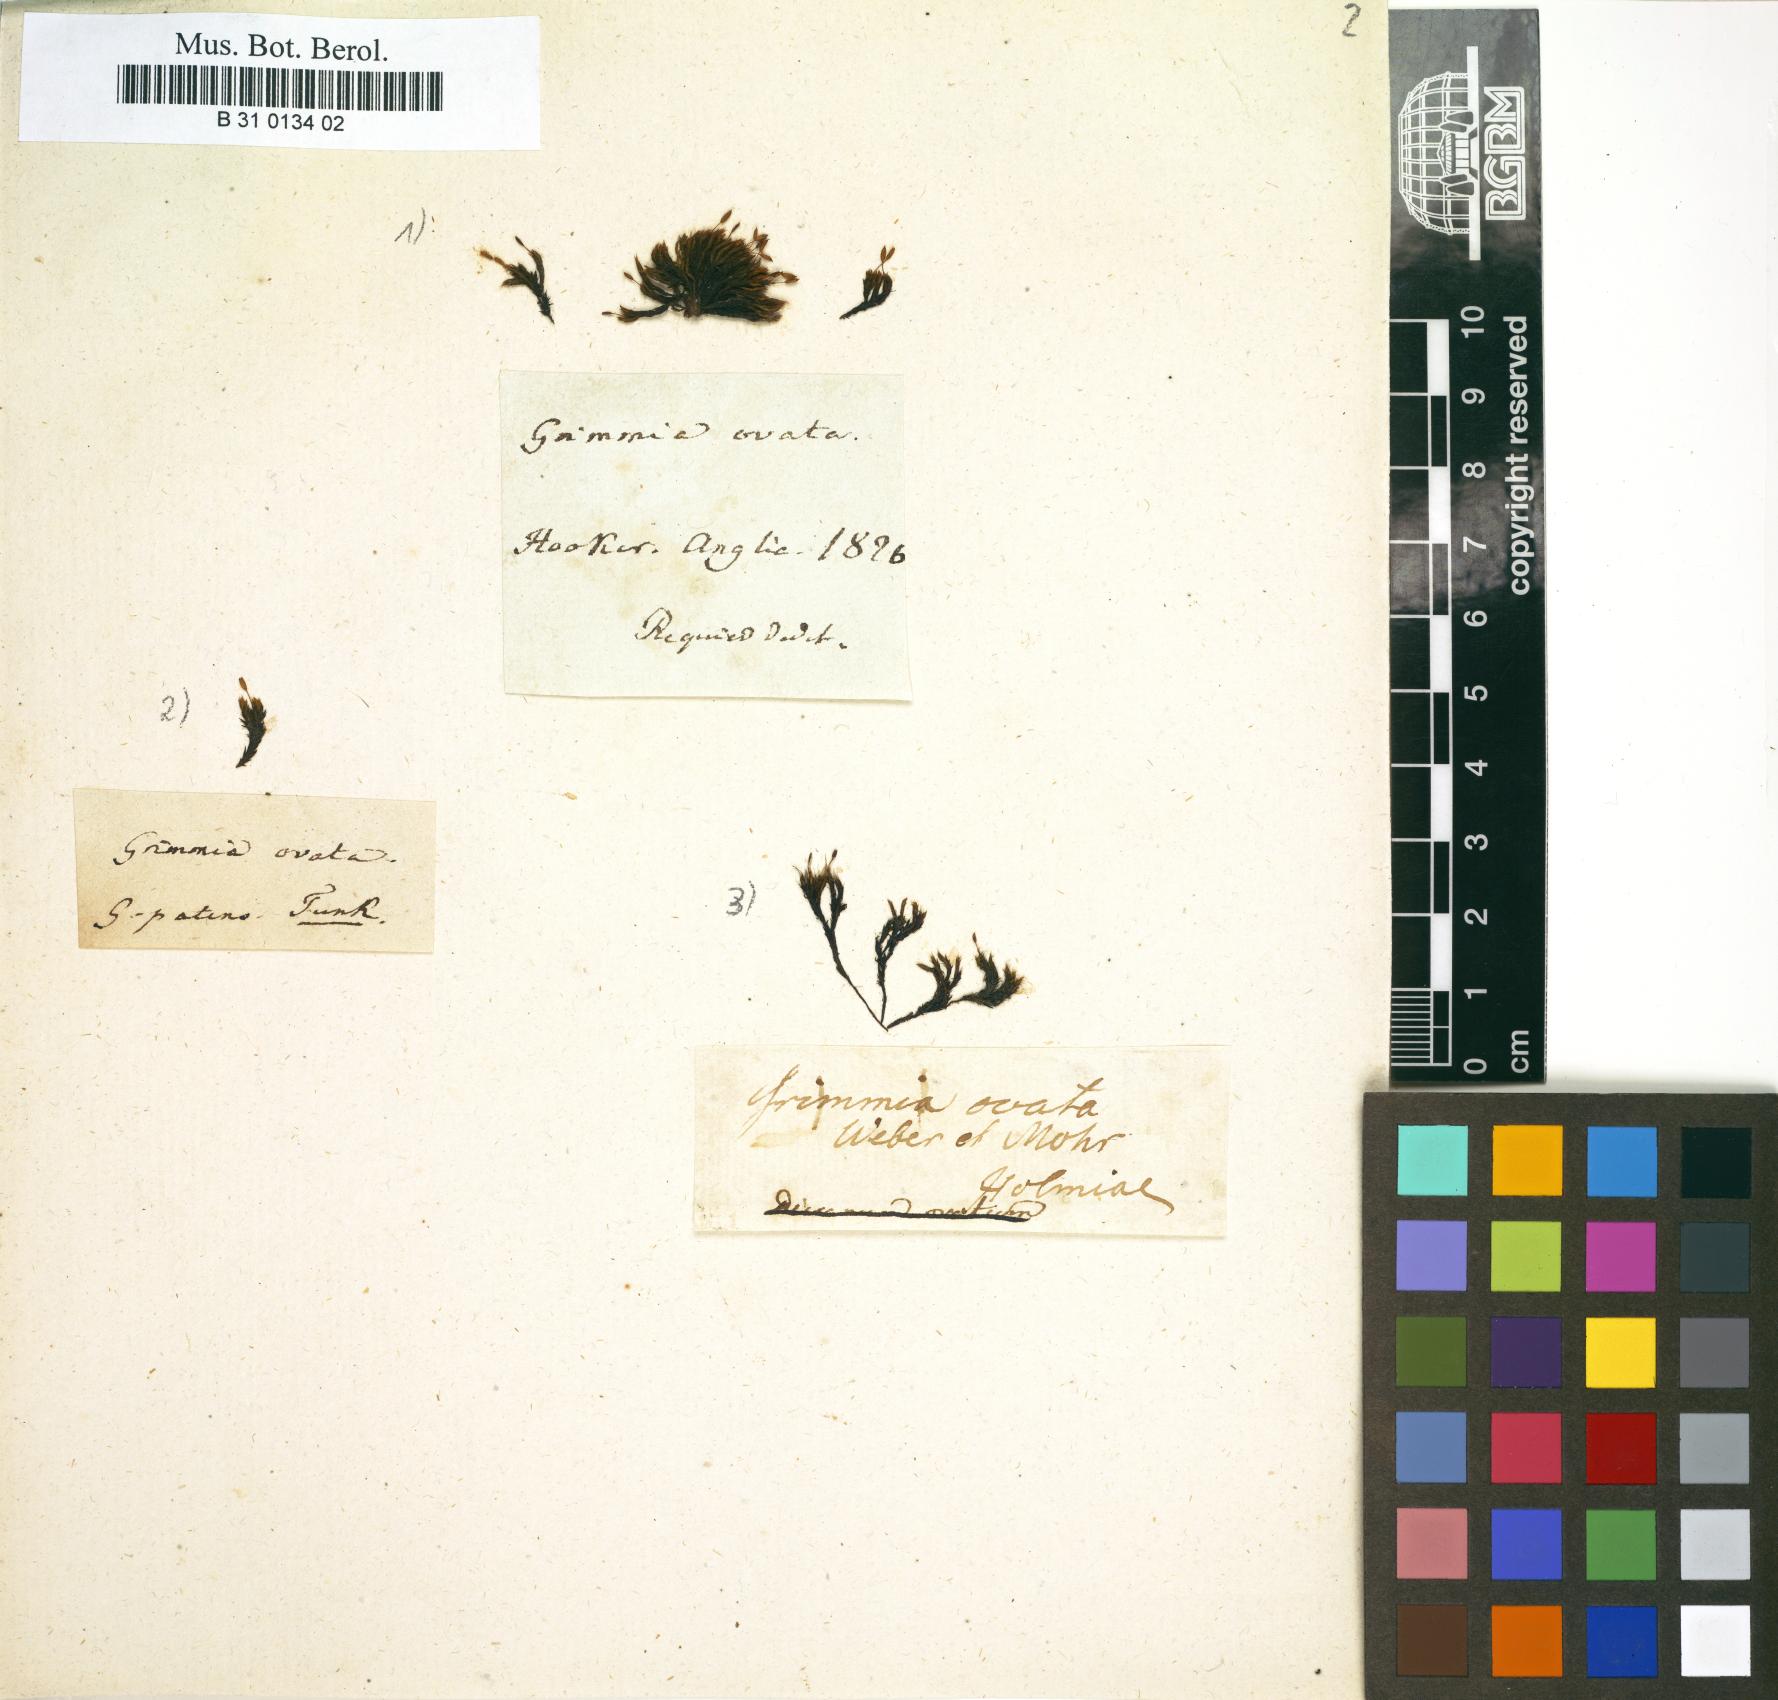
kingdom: Plantae
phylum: Bryophyta
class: Bryopsida
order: Grimmiales
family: Grimmiaceae
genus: Grimmia
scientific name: Grimmia ovalis
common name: Oval grimmia
